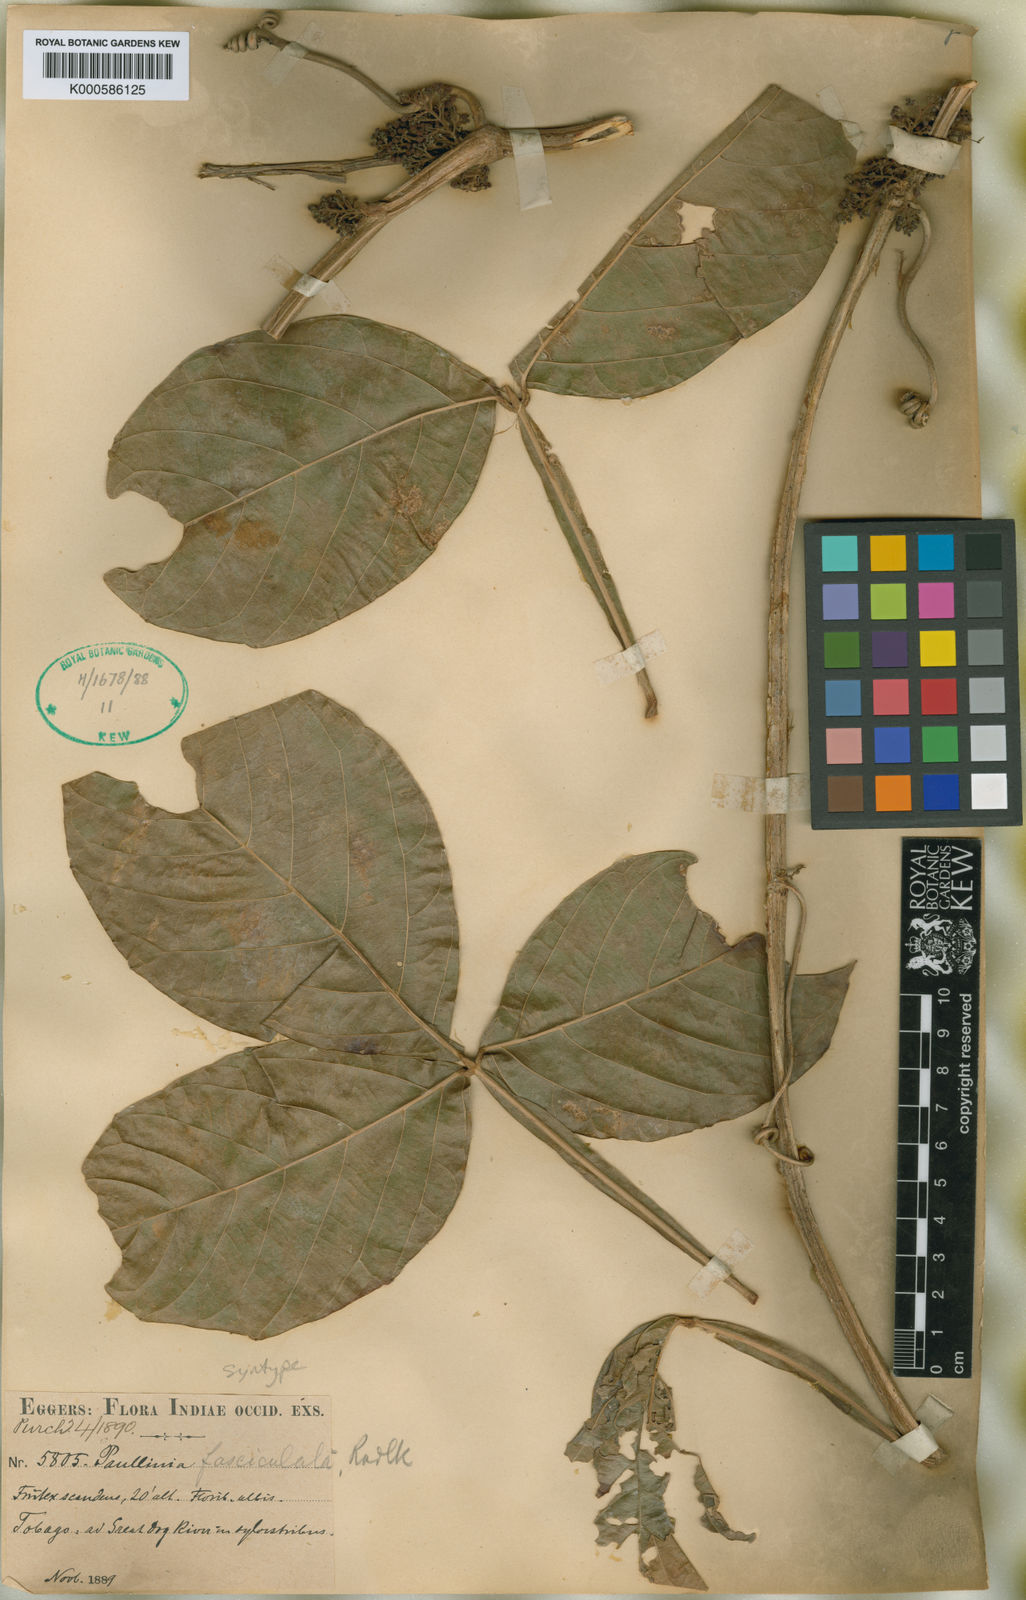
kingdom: Plantae
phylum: Tracheophyta
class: Magnoliopsida
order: Sapindales
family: Sapindaceae
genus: Paullinia
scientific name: Paullinia alata
